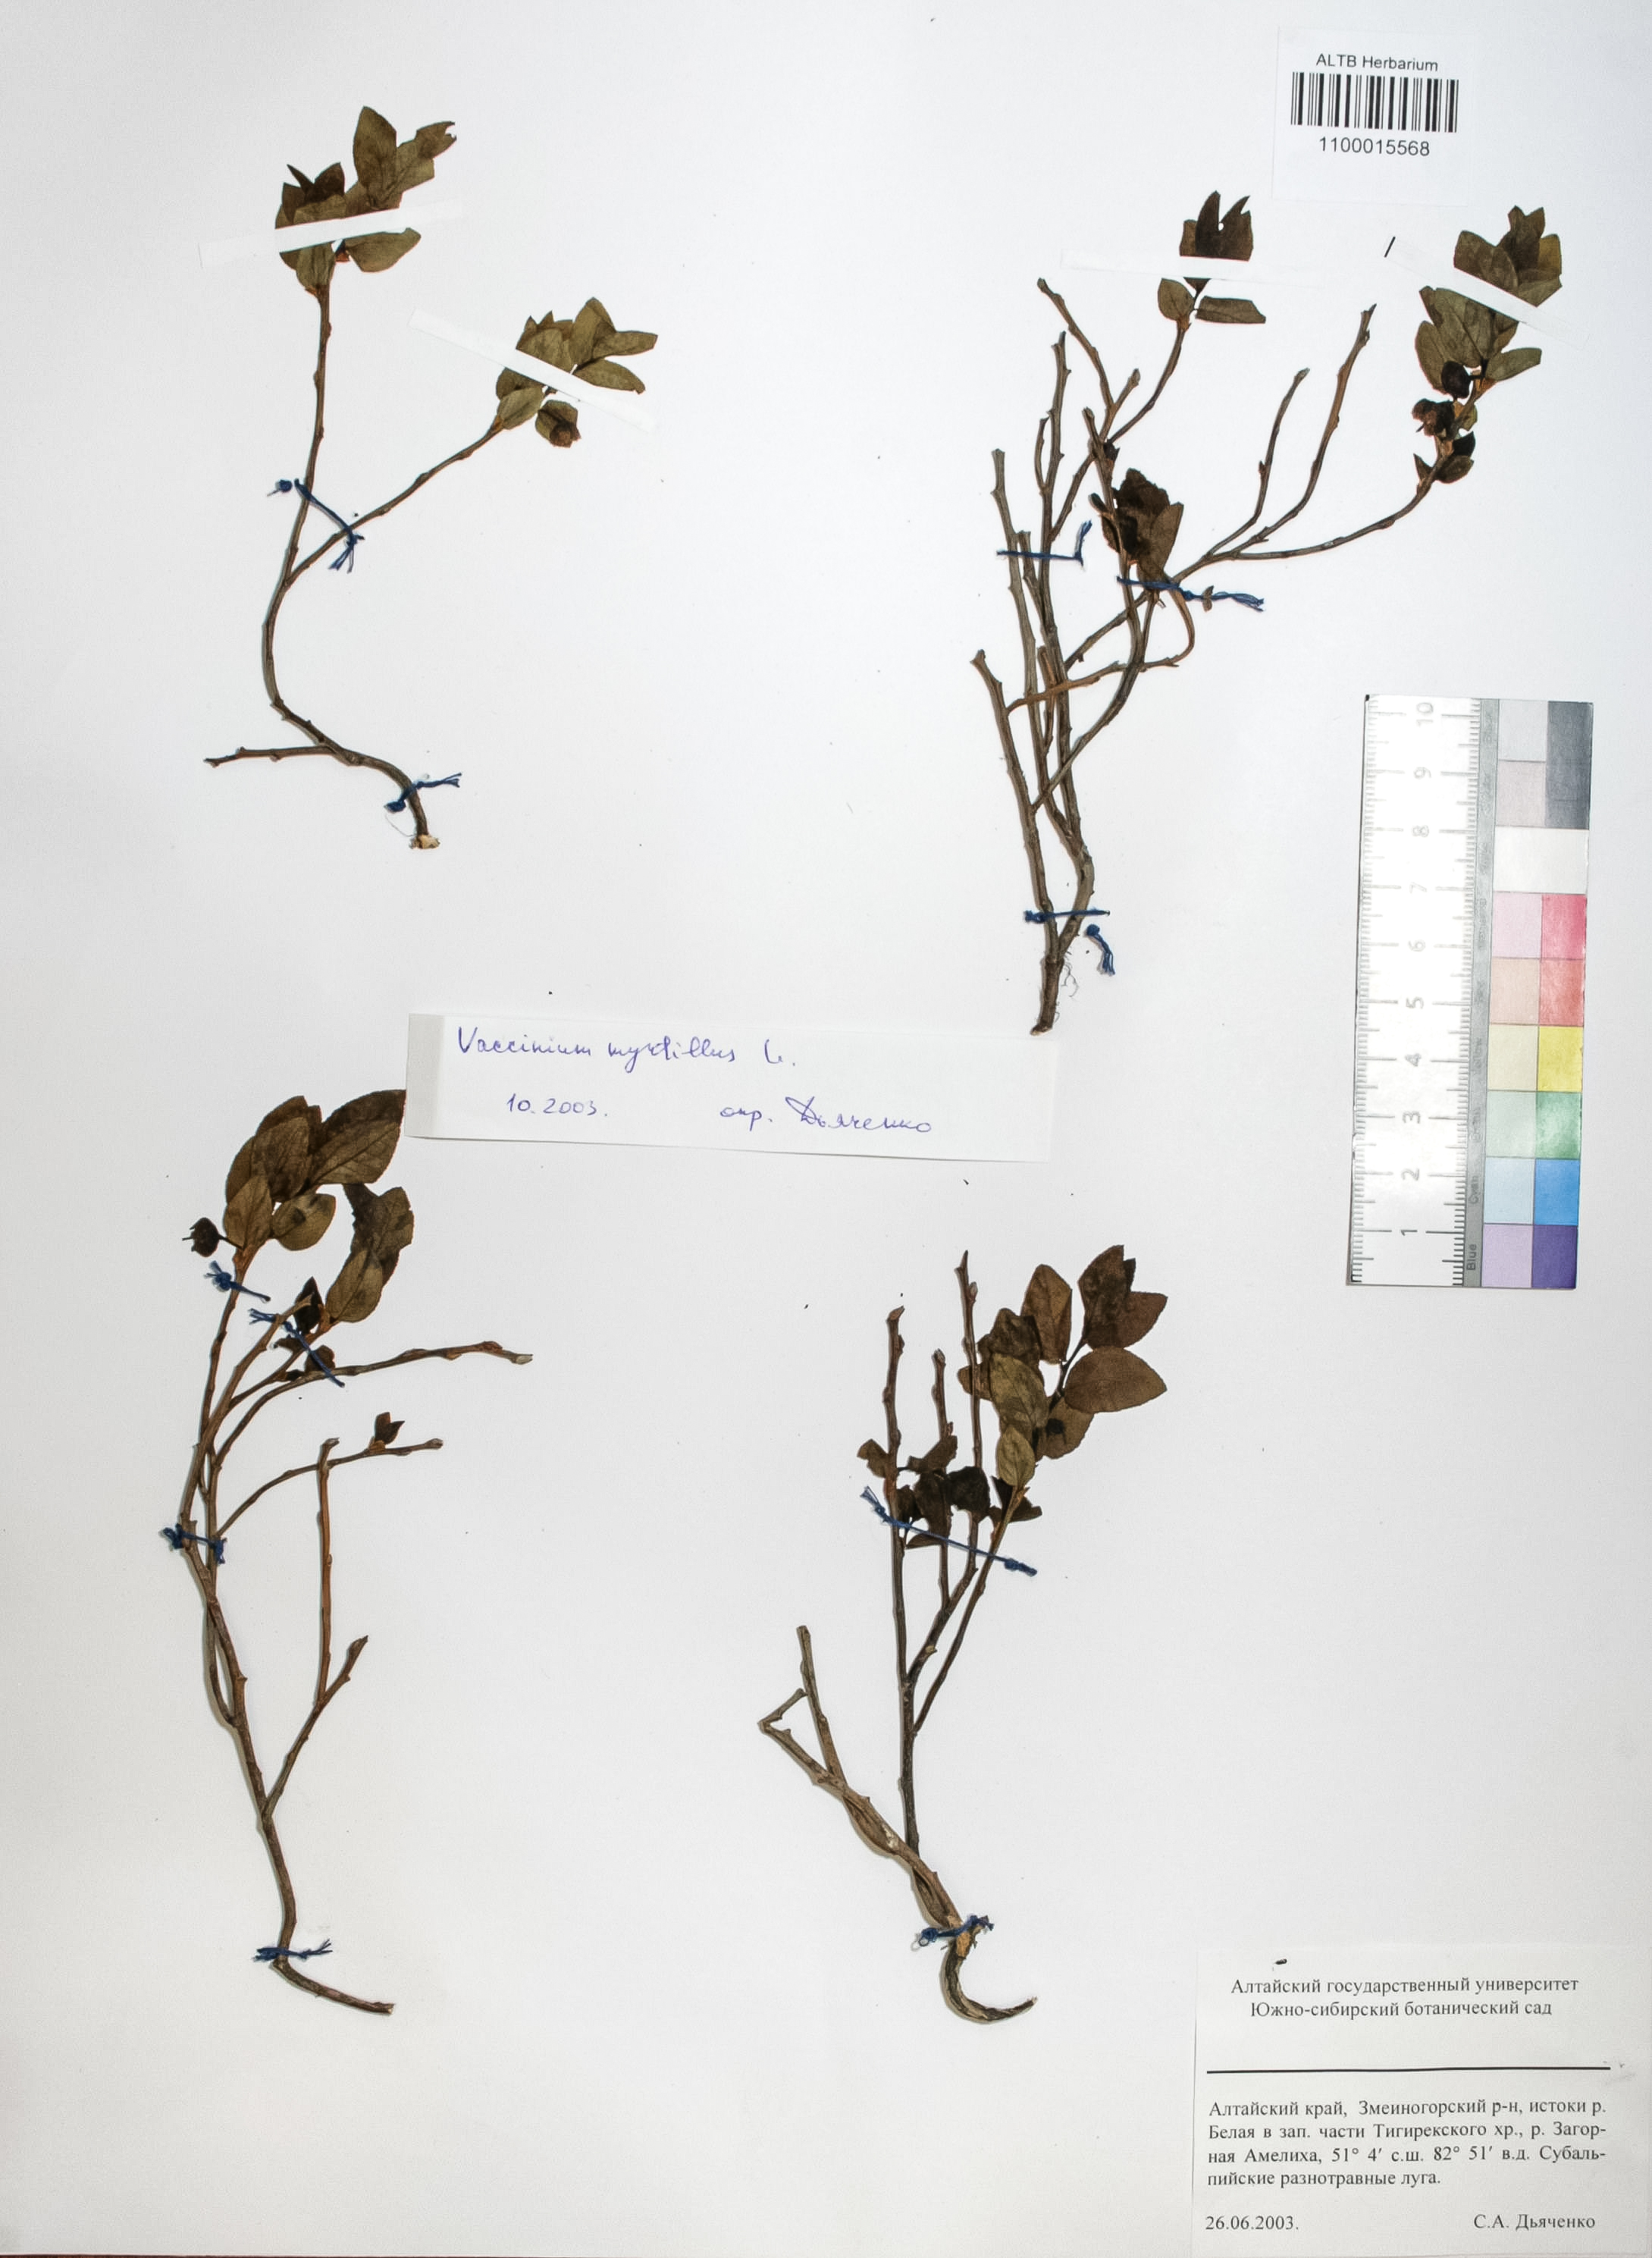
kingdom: Plantae
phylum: Tracheophyta
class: Magnoliopsida
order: Ericales
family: Ericaceae
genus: Vaccinium
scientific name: Vaccinium myrtillus
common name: Bilberry
